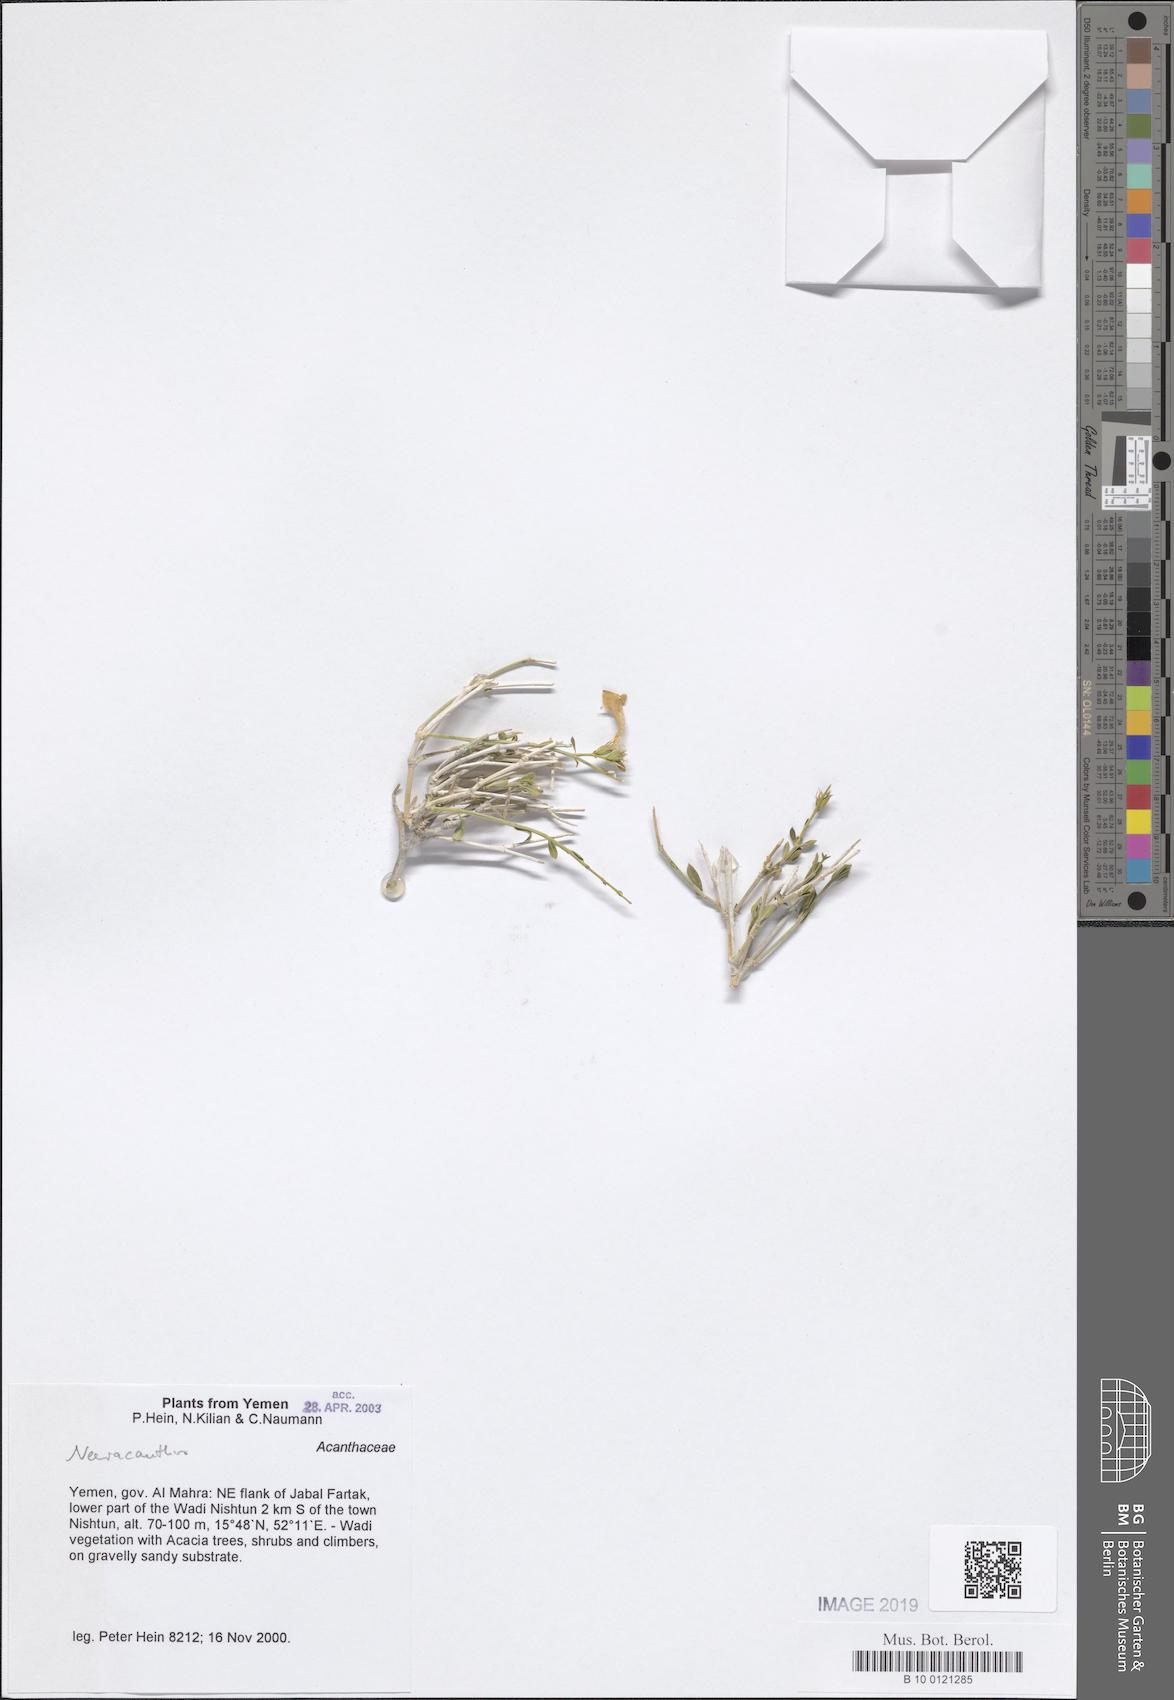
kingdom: Plantae
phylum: Tracheophyta
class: Magnoliopsida
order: Lamiales
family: Acanthaceae
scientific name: Acanthaceae
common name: Acanthaceae
